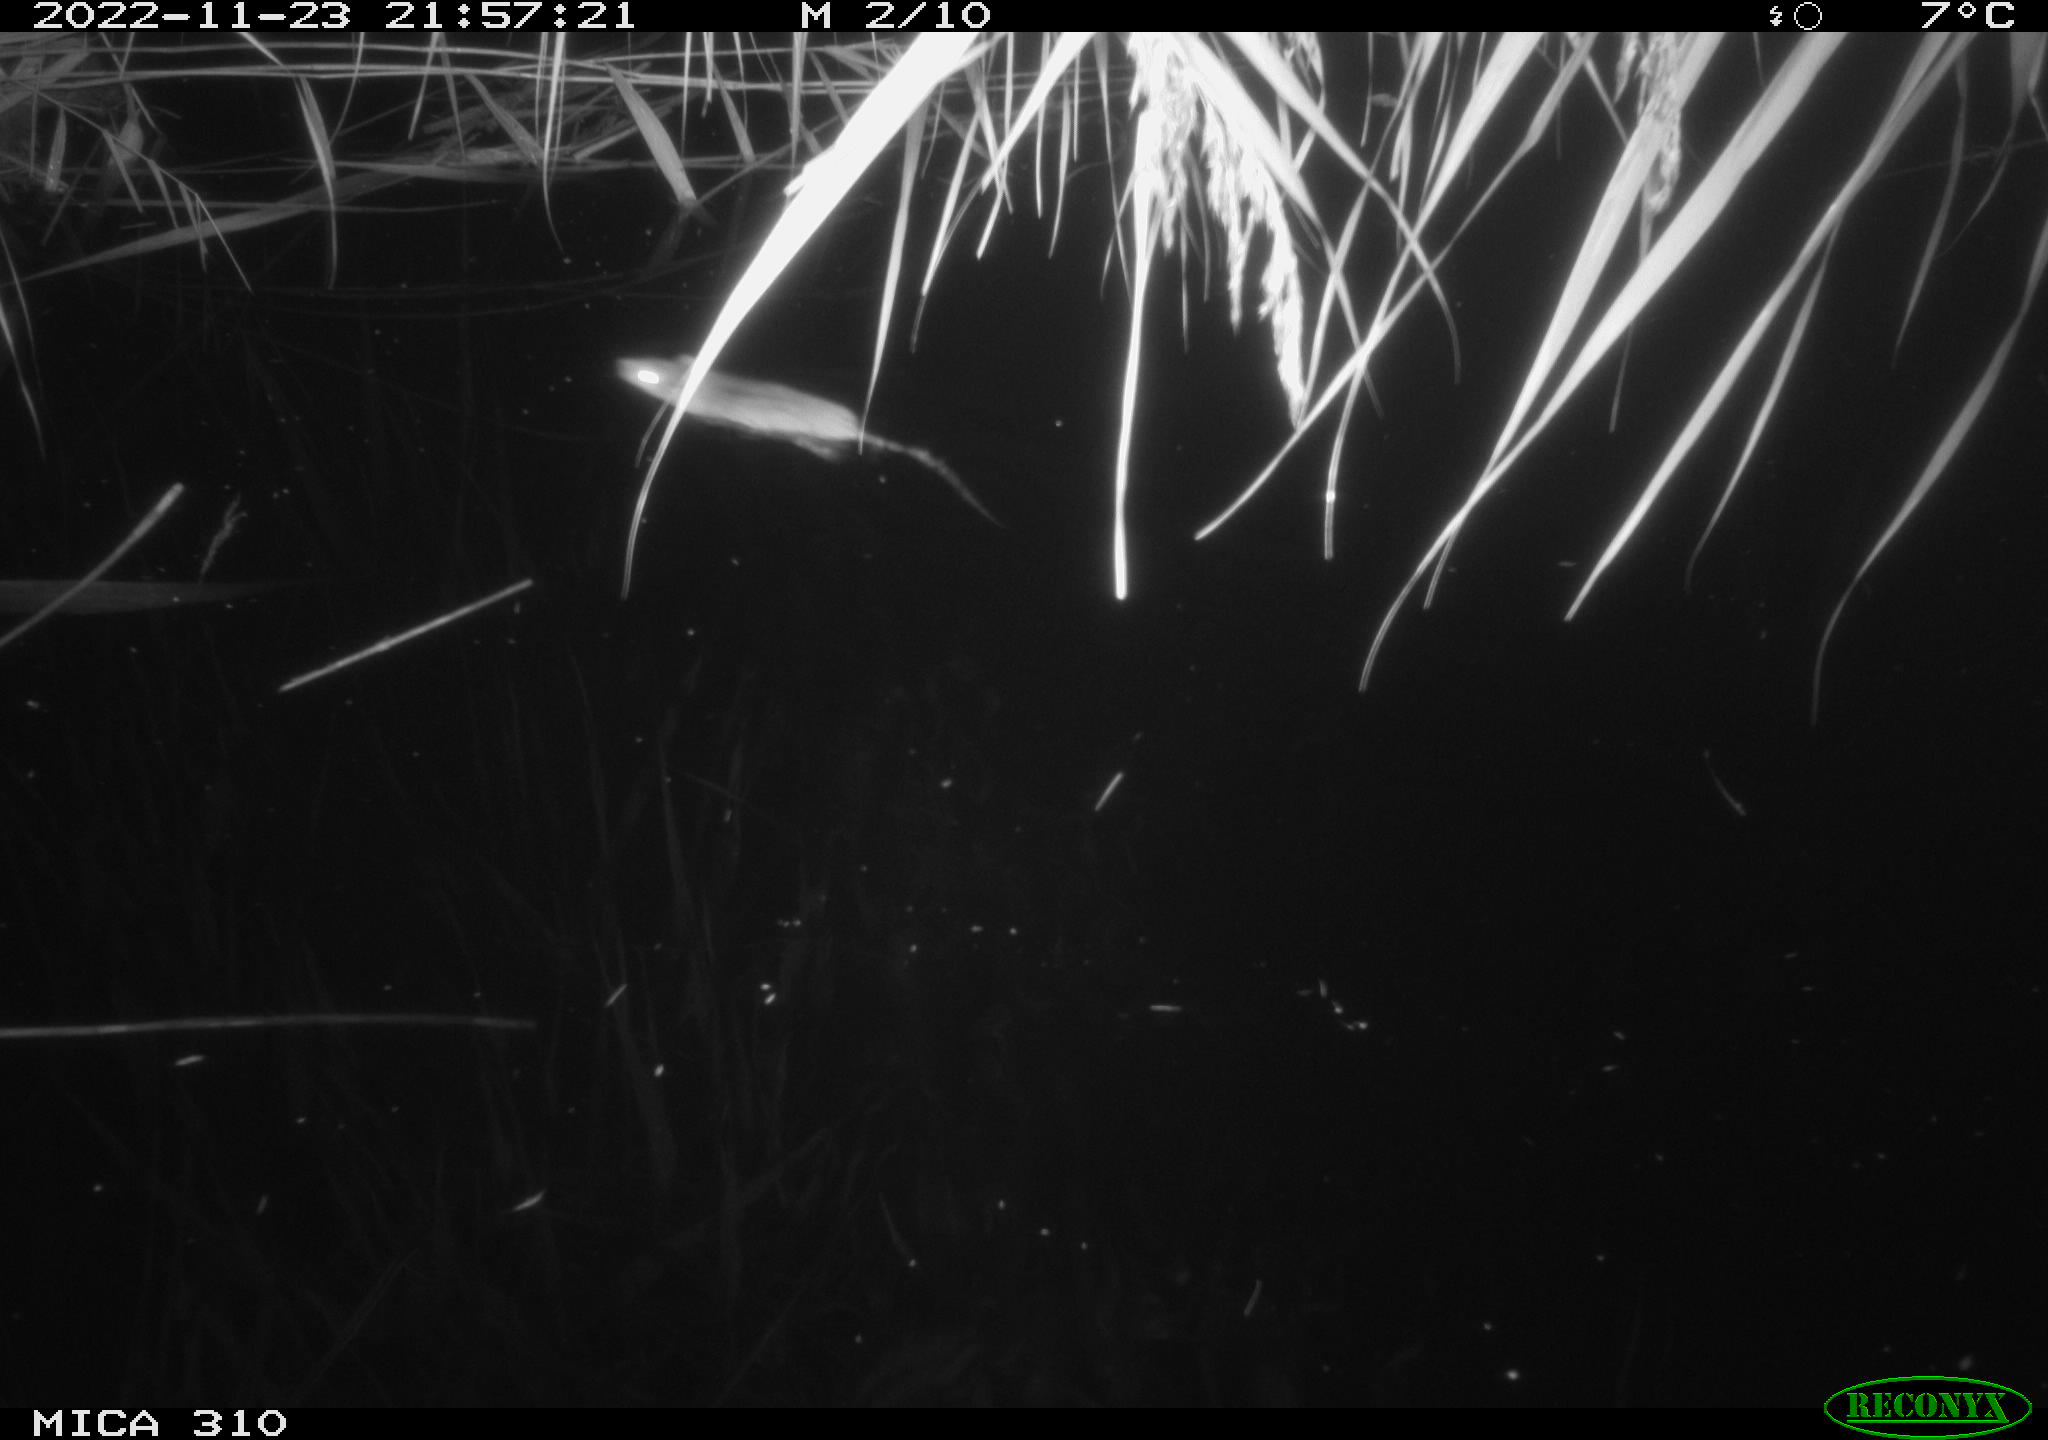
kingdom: Animalia
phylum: Chordata
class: Mammalia
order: Rodentia
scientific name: Rodentia
